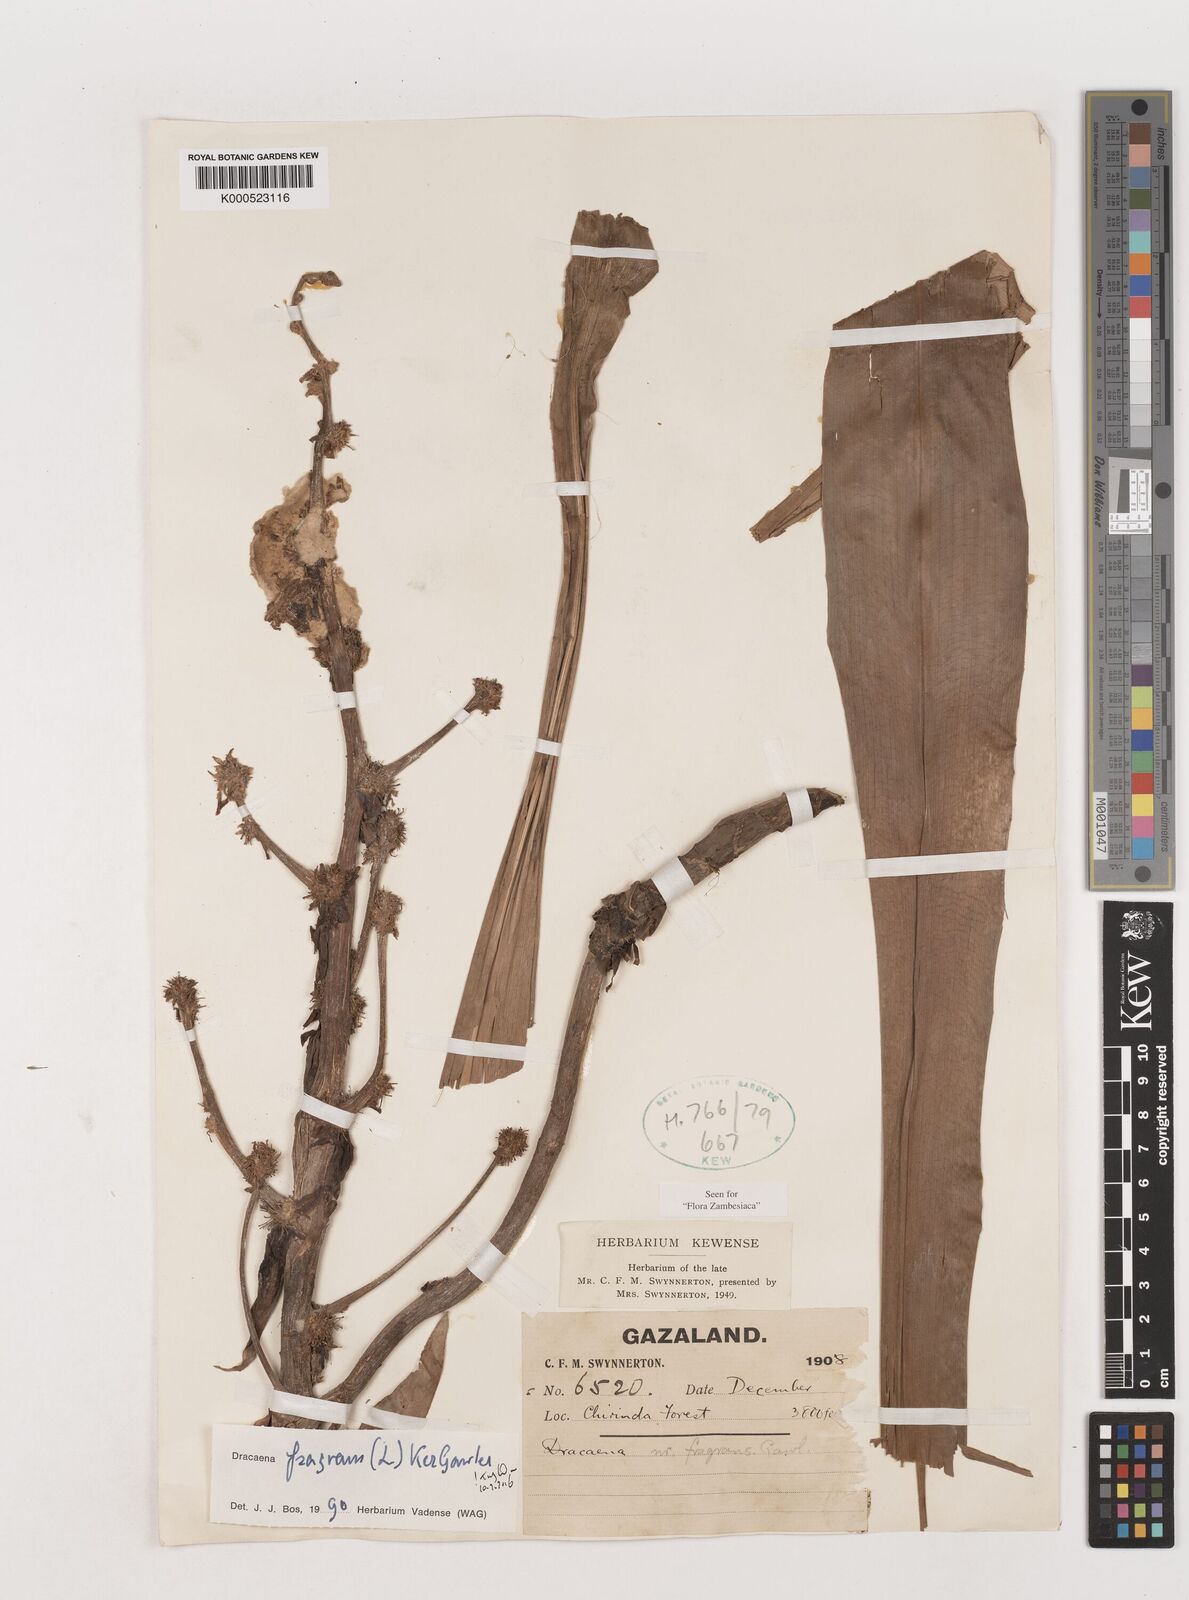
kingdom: Plantae
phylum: Tracheophyta
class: Liliopsida
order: Asparagales
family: Asparagaceae
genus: Dracaena
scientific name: Dracaena fragrans
